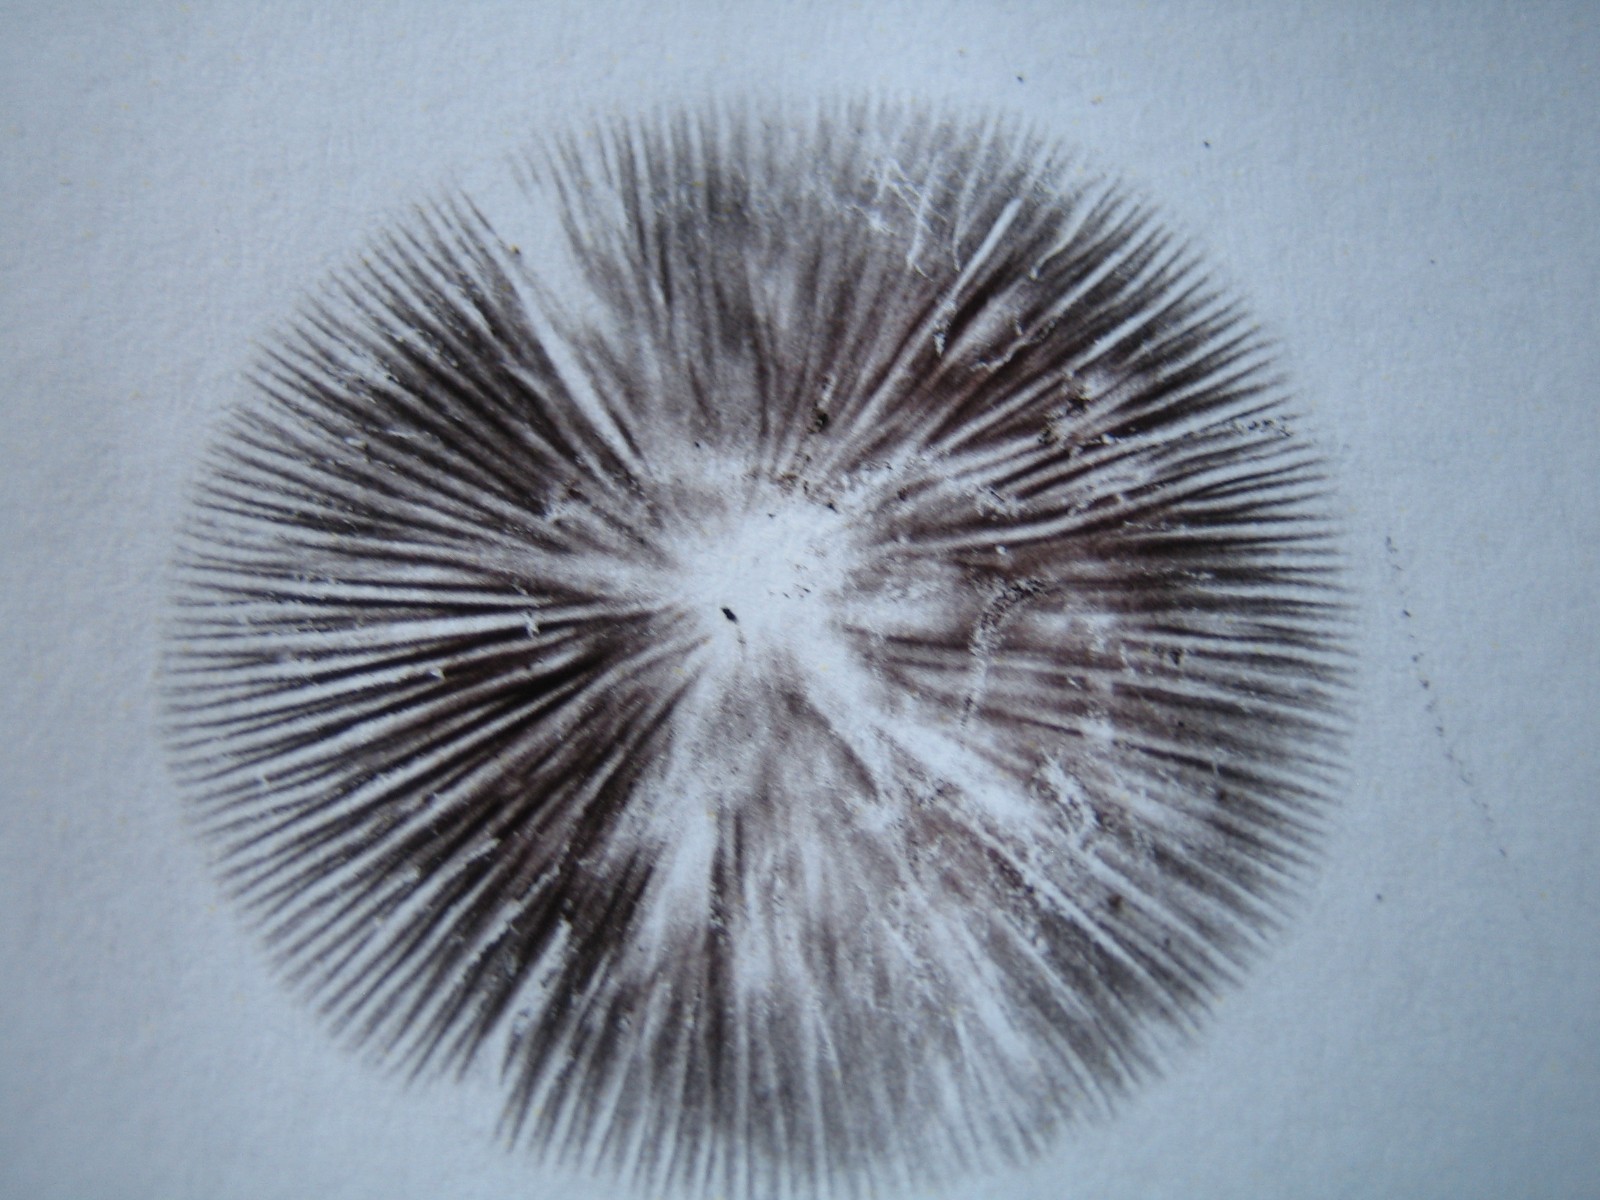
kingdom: Fungi
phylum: Basidiomycota
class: Agaricomycetes
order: Agaricales
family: Psathyrellaceae
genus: Parasola
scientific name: Parasola conopilea
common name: kegle-hjulhat
